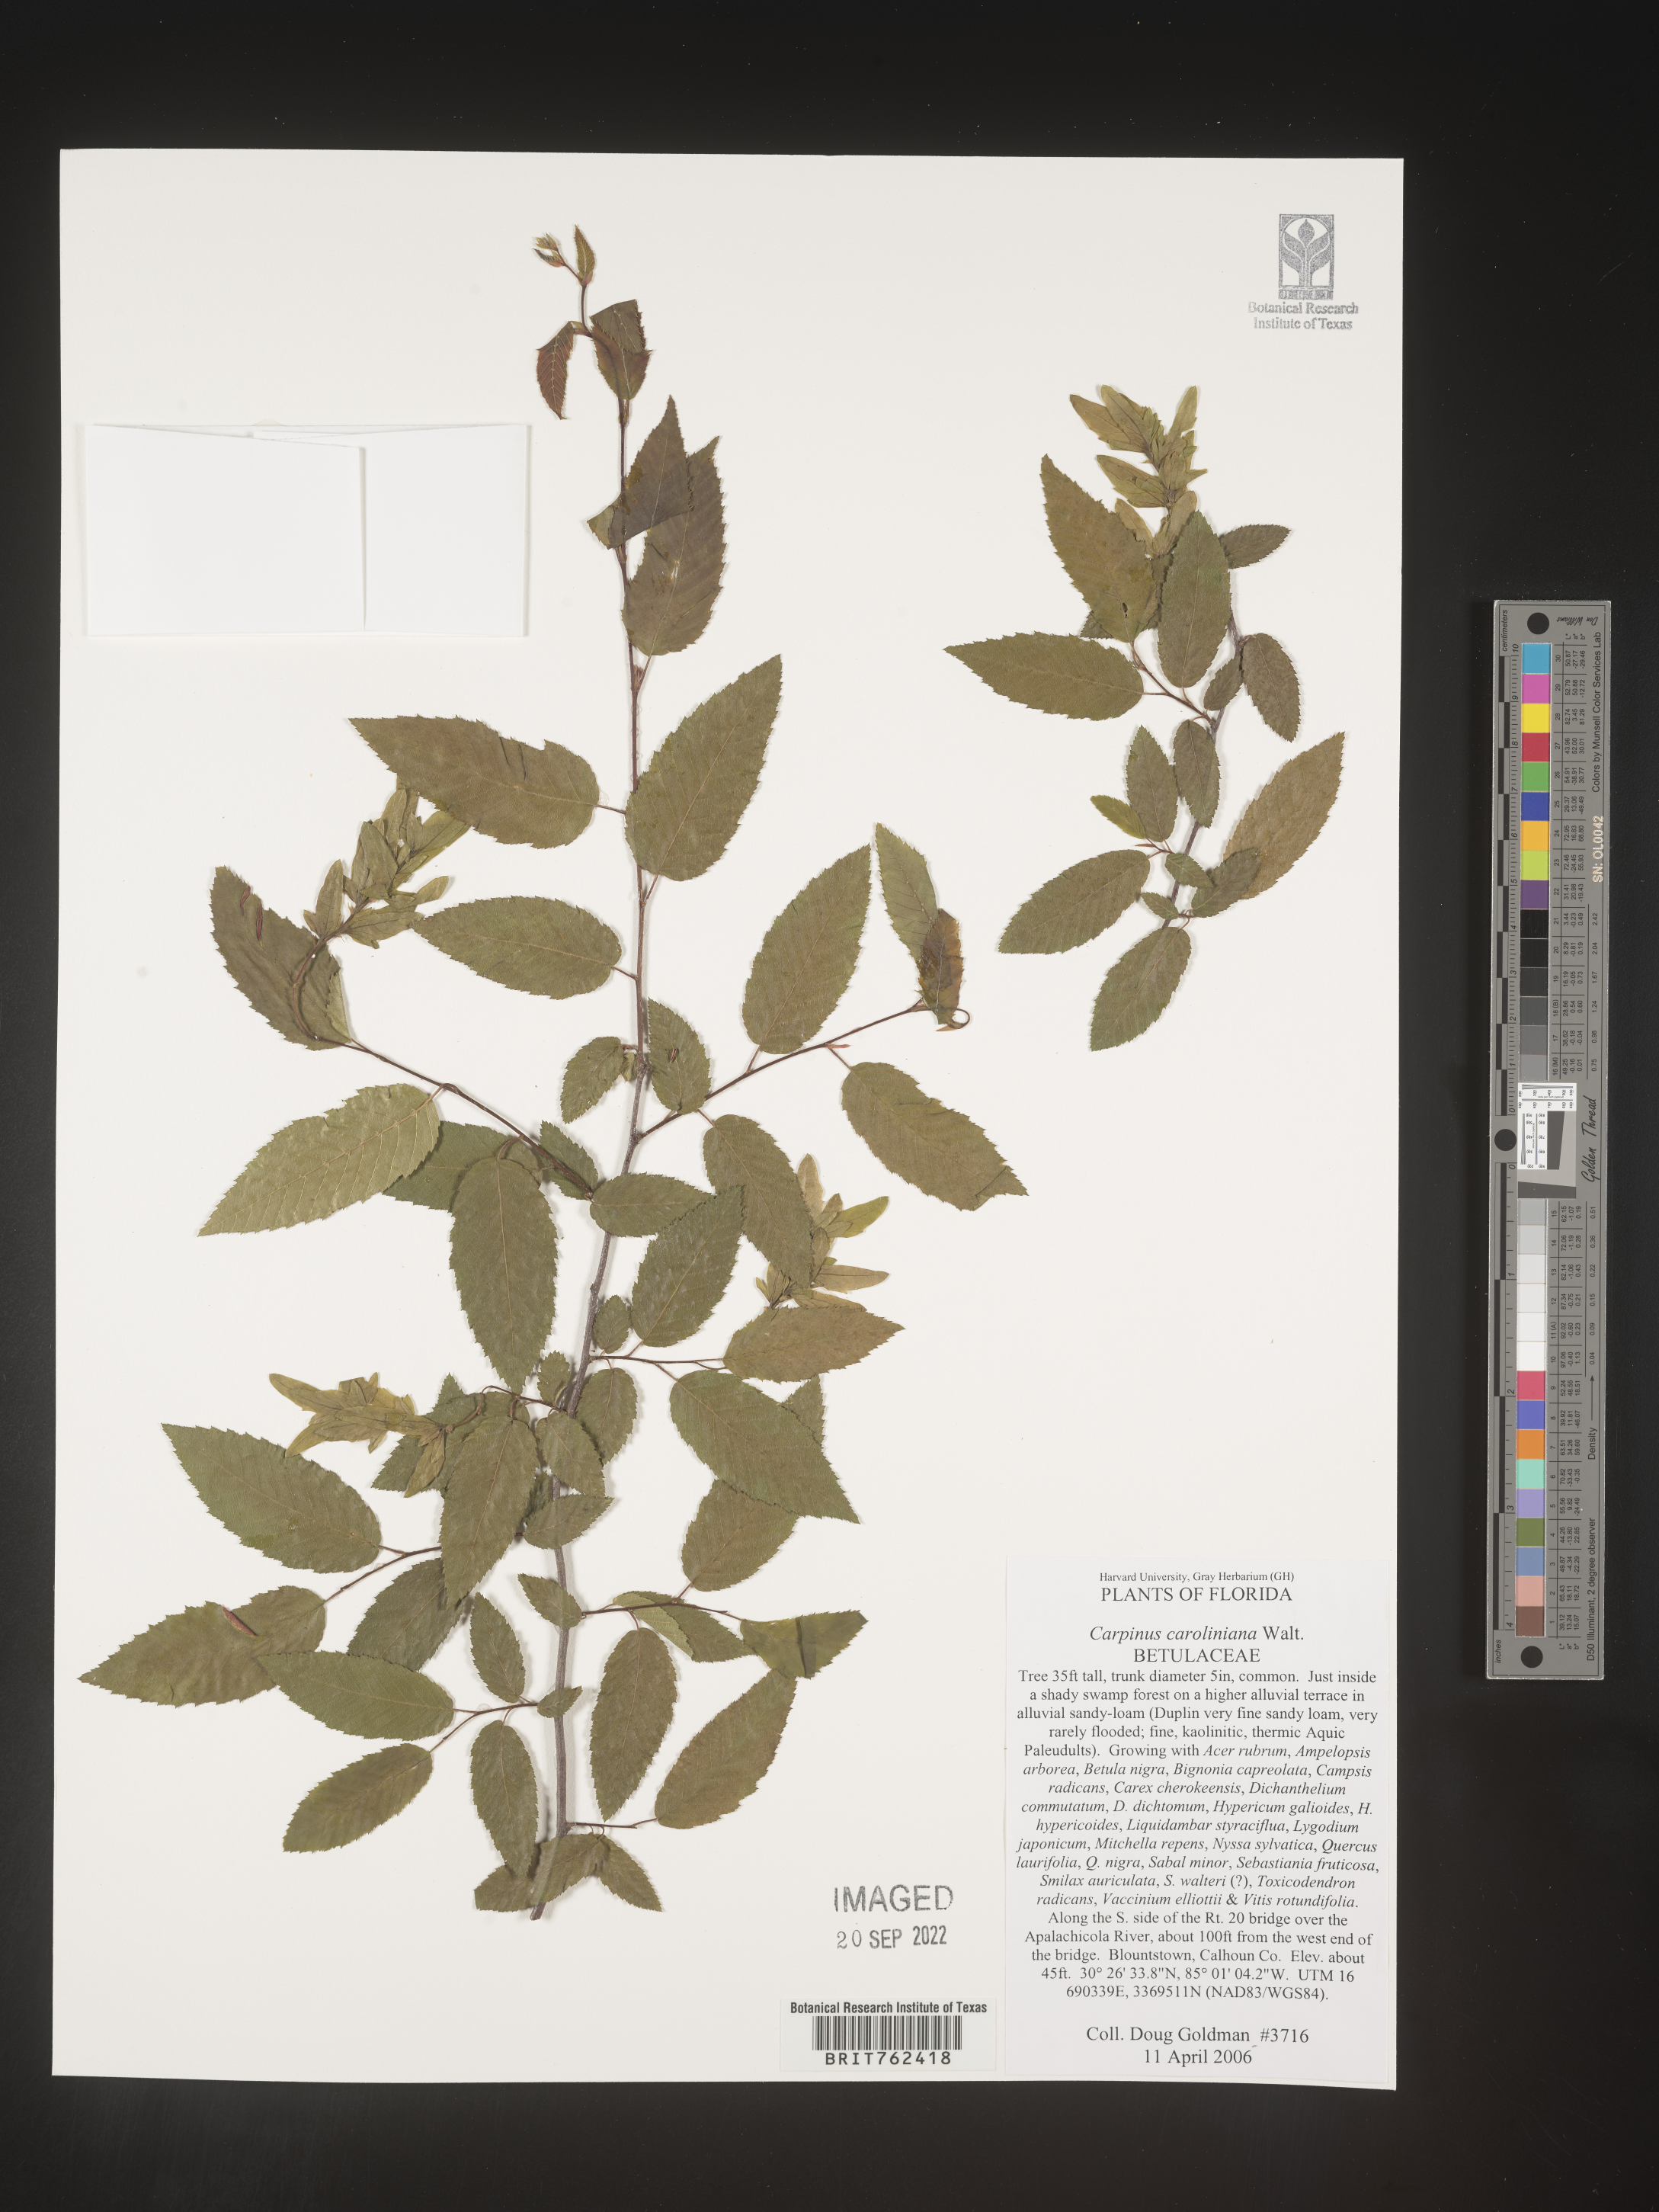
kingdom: Plantae
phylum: Tracheophyta
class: Magnoliopsida
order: Fagales
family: Betulaceae
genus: Carpinus
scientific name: Carpinus caroliniana
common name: American hornbeam
